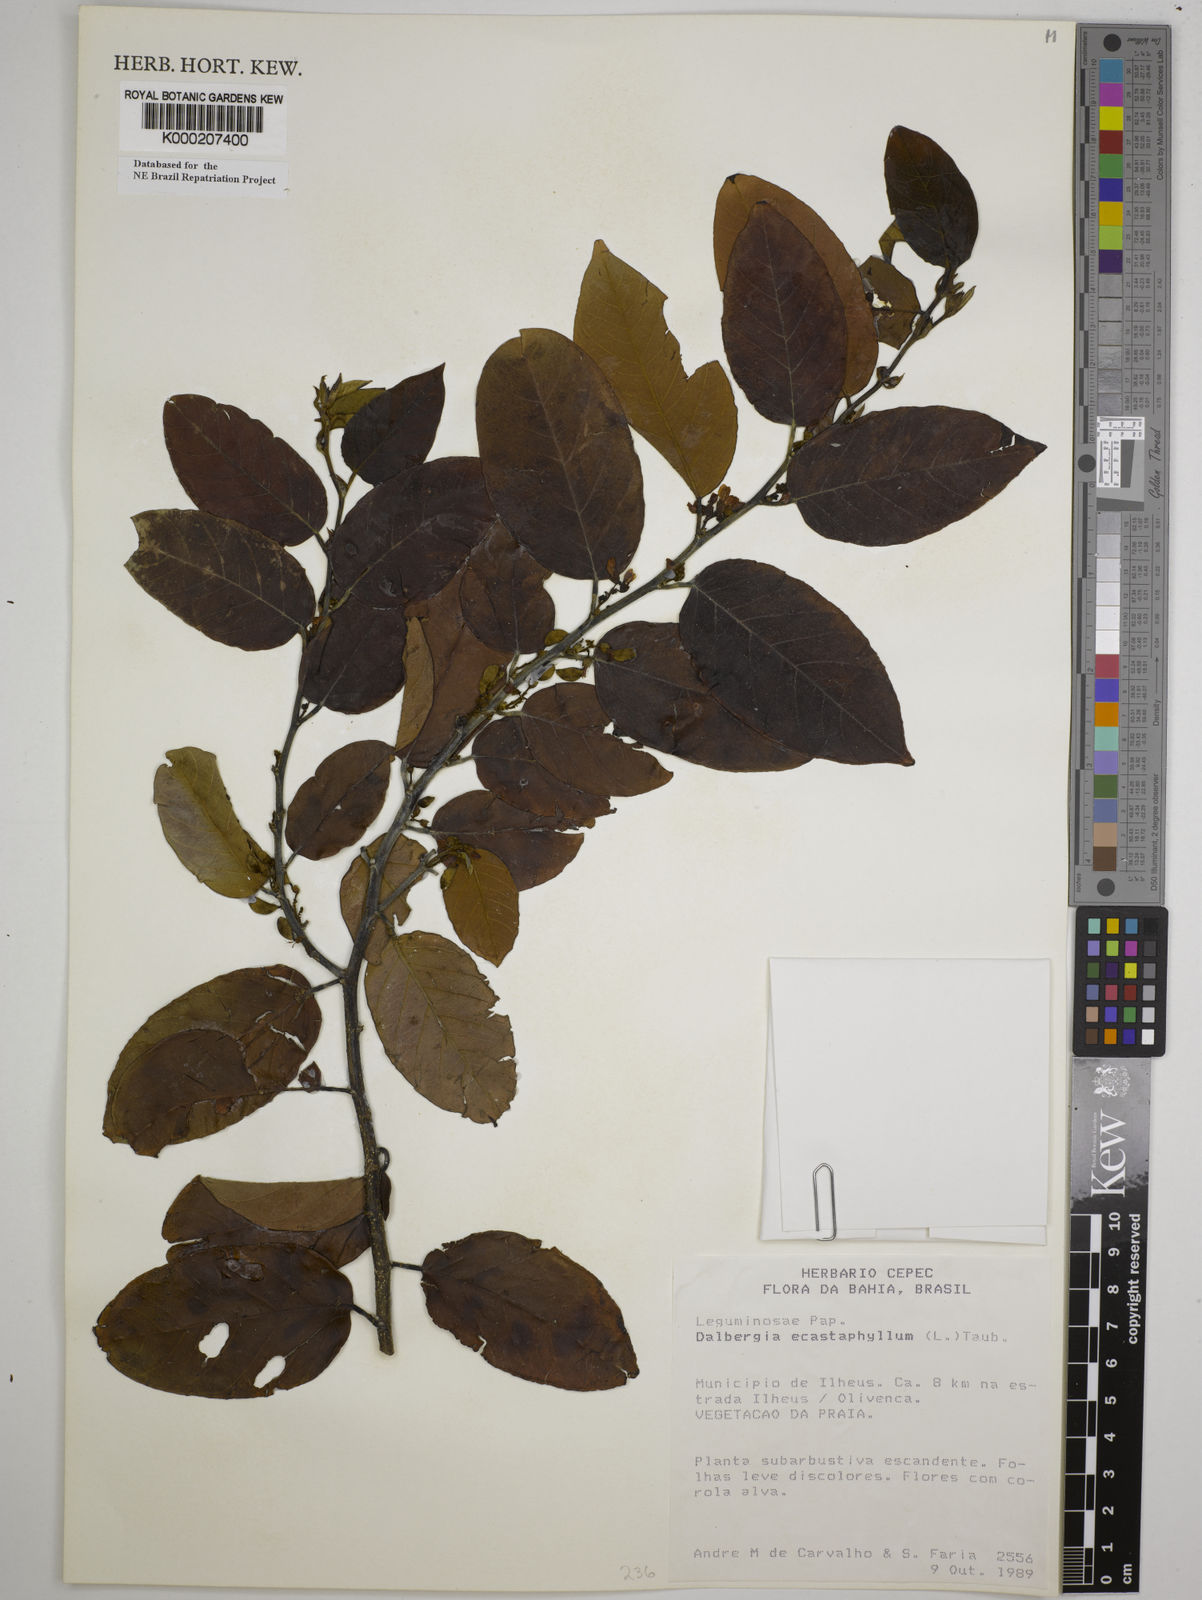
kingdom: Plantae
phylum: Tracheophyta
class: Magnoliopsida
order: Fabales
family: Fabaceae
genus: Dalbergia
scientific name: Dalbergia
